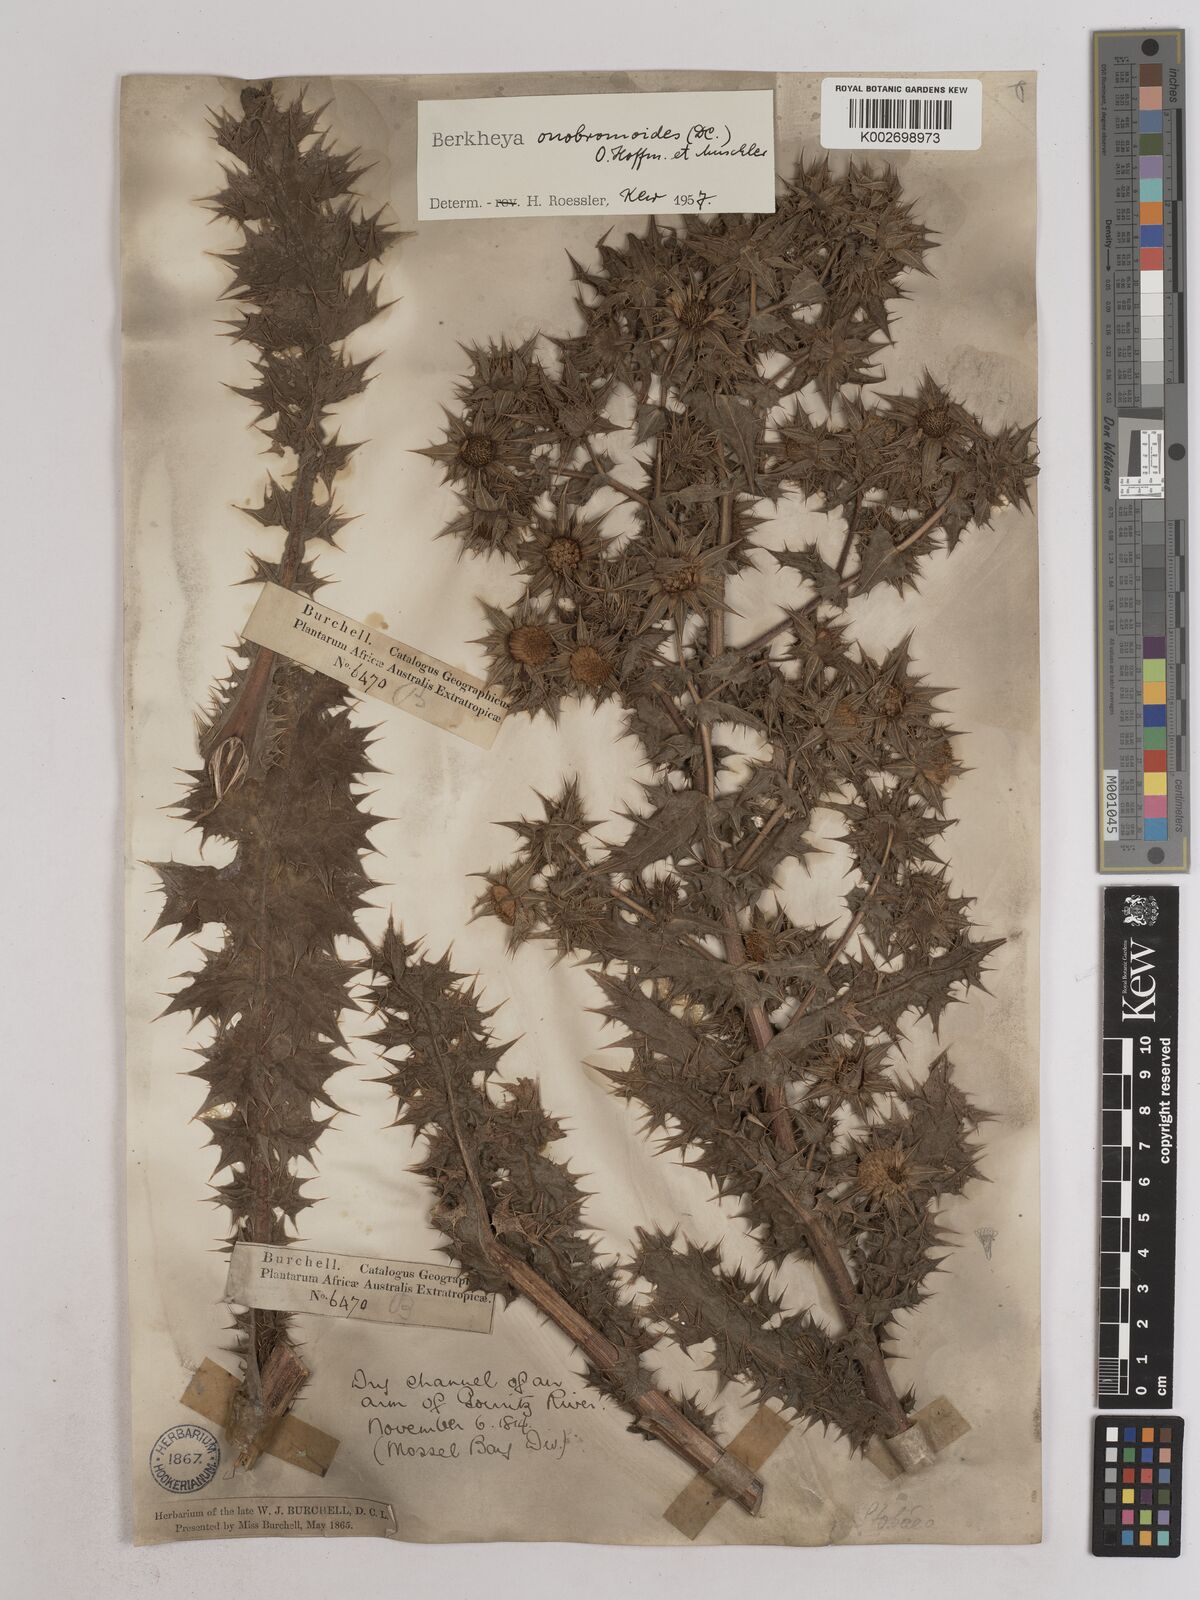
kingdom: Plantae
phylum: Tracheophyta
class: Magnoliopsida
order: Asterales
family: Asteraceae
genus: Berkheya
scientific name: Berkheya onobromoides
